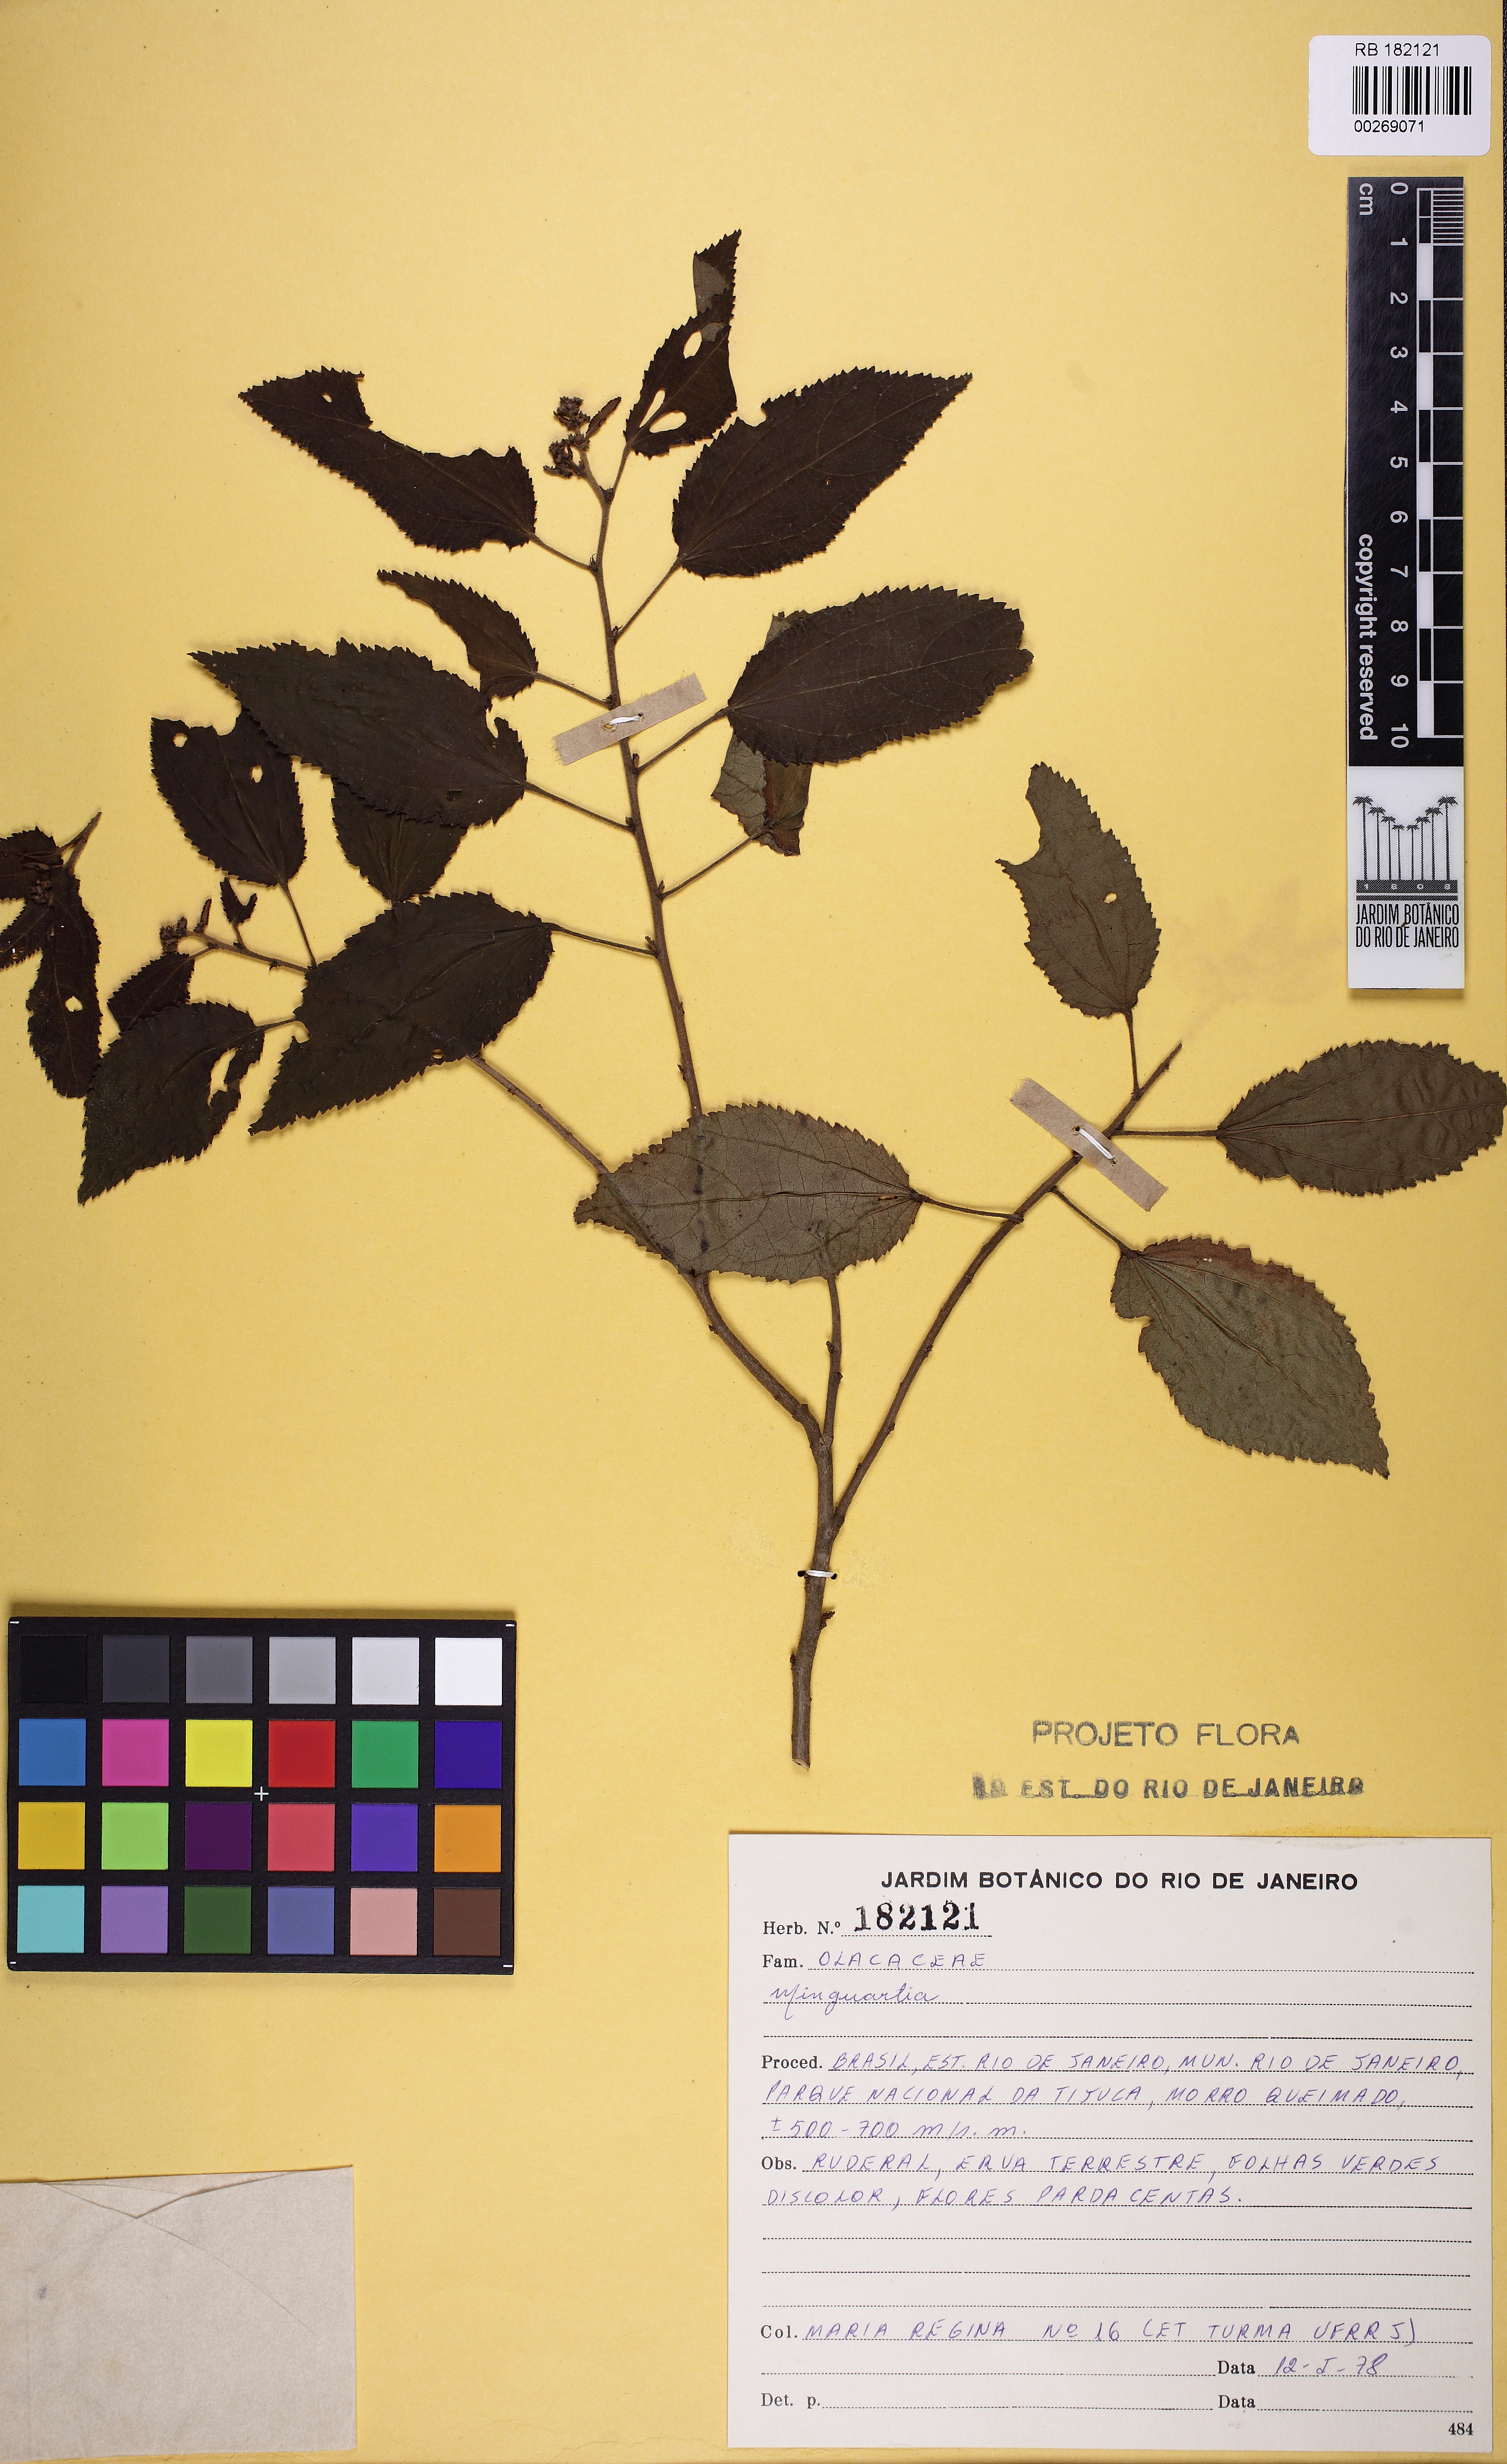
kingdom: Plantae
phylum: Tracheophyta
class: Magnoliopsida
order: Santalales
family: Coulaceae
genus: Minquartia
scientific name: Minquartia
